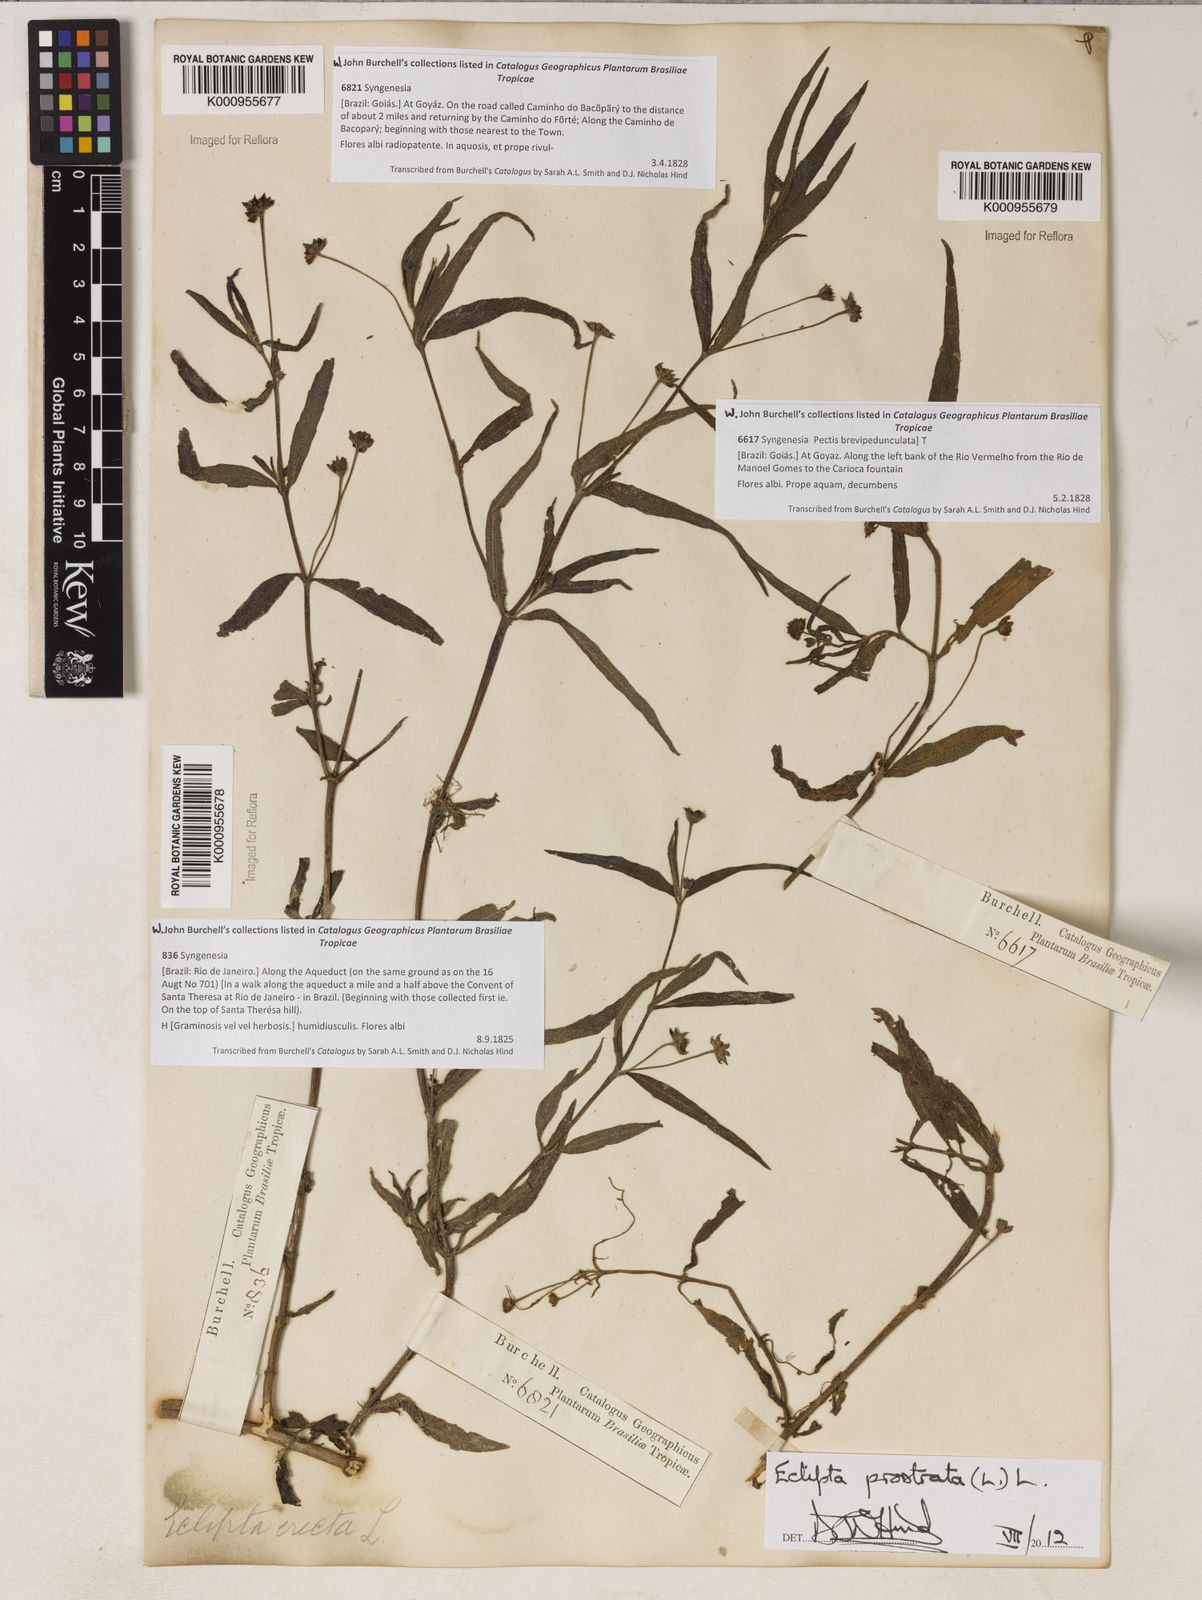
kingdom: Plantae
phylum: Tracheophyta
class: Magnoliopsida
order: Asterales
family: Asteraceae
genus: Eclipta
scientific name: Eclipta prostrata
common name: False daisy
